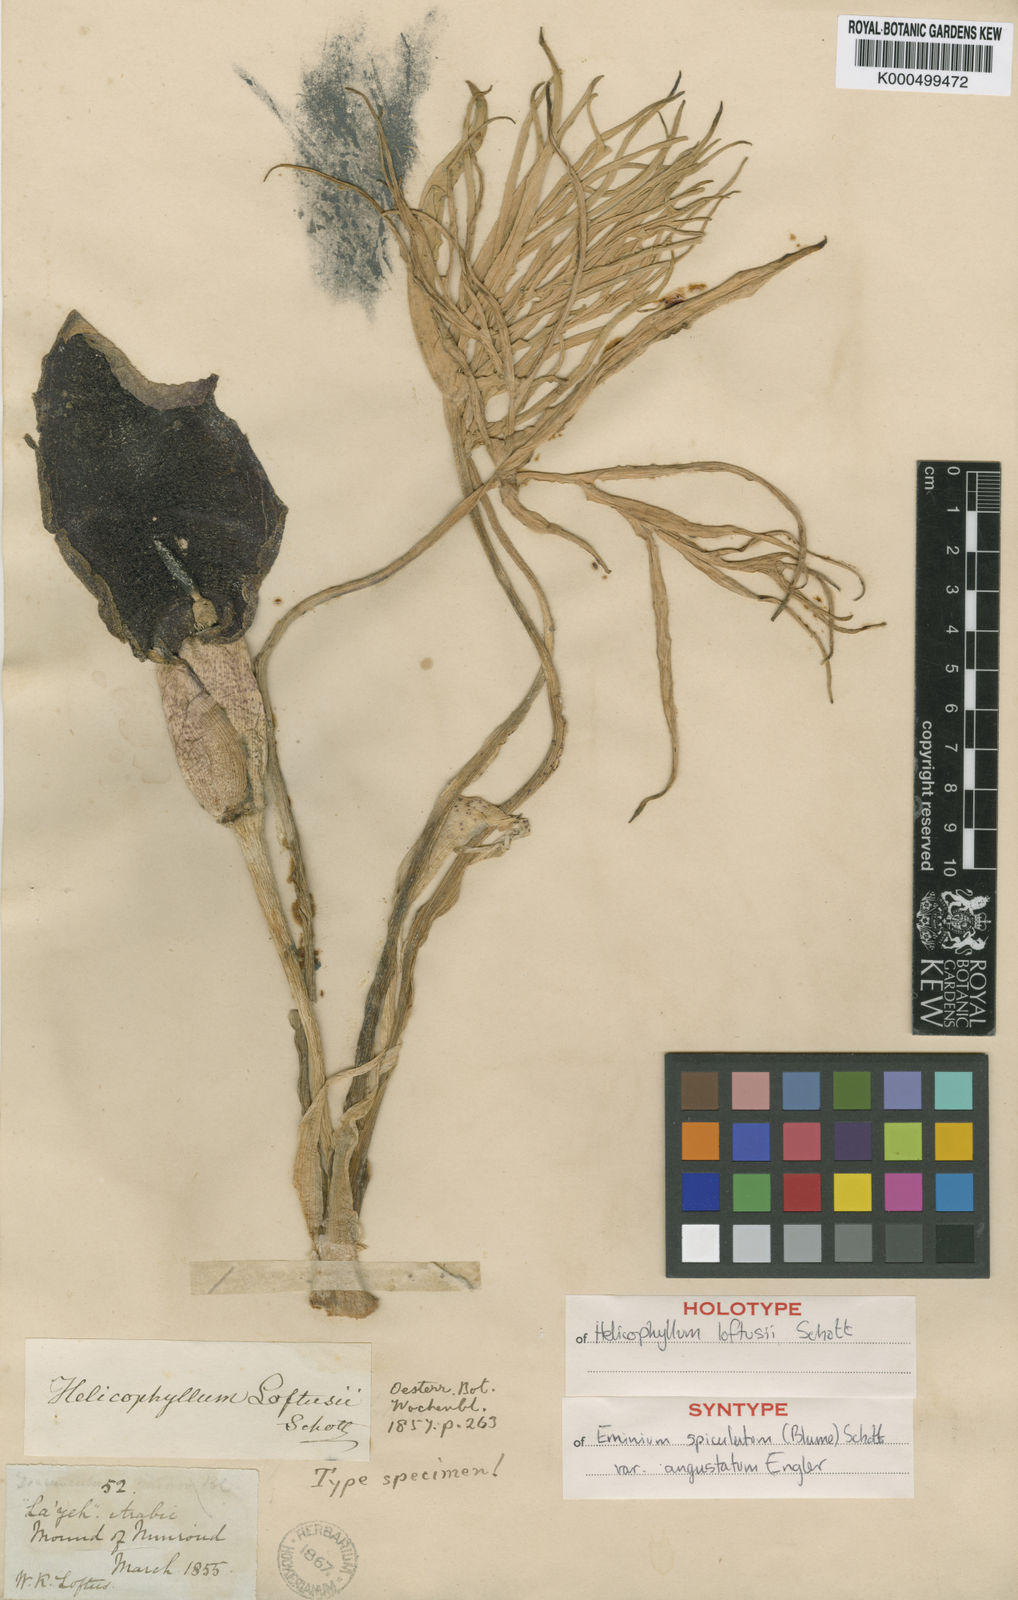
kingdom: Plantae
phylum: Tracheophyta
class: Liliopsida
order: Alismatales
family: Araceae
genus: Eminium
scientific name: Eminium spiculatum
